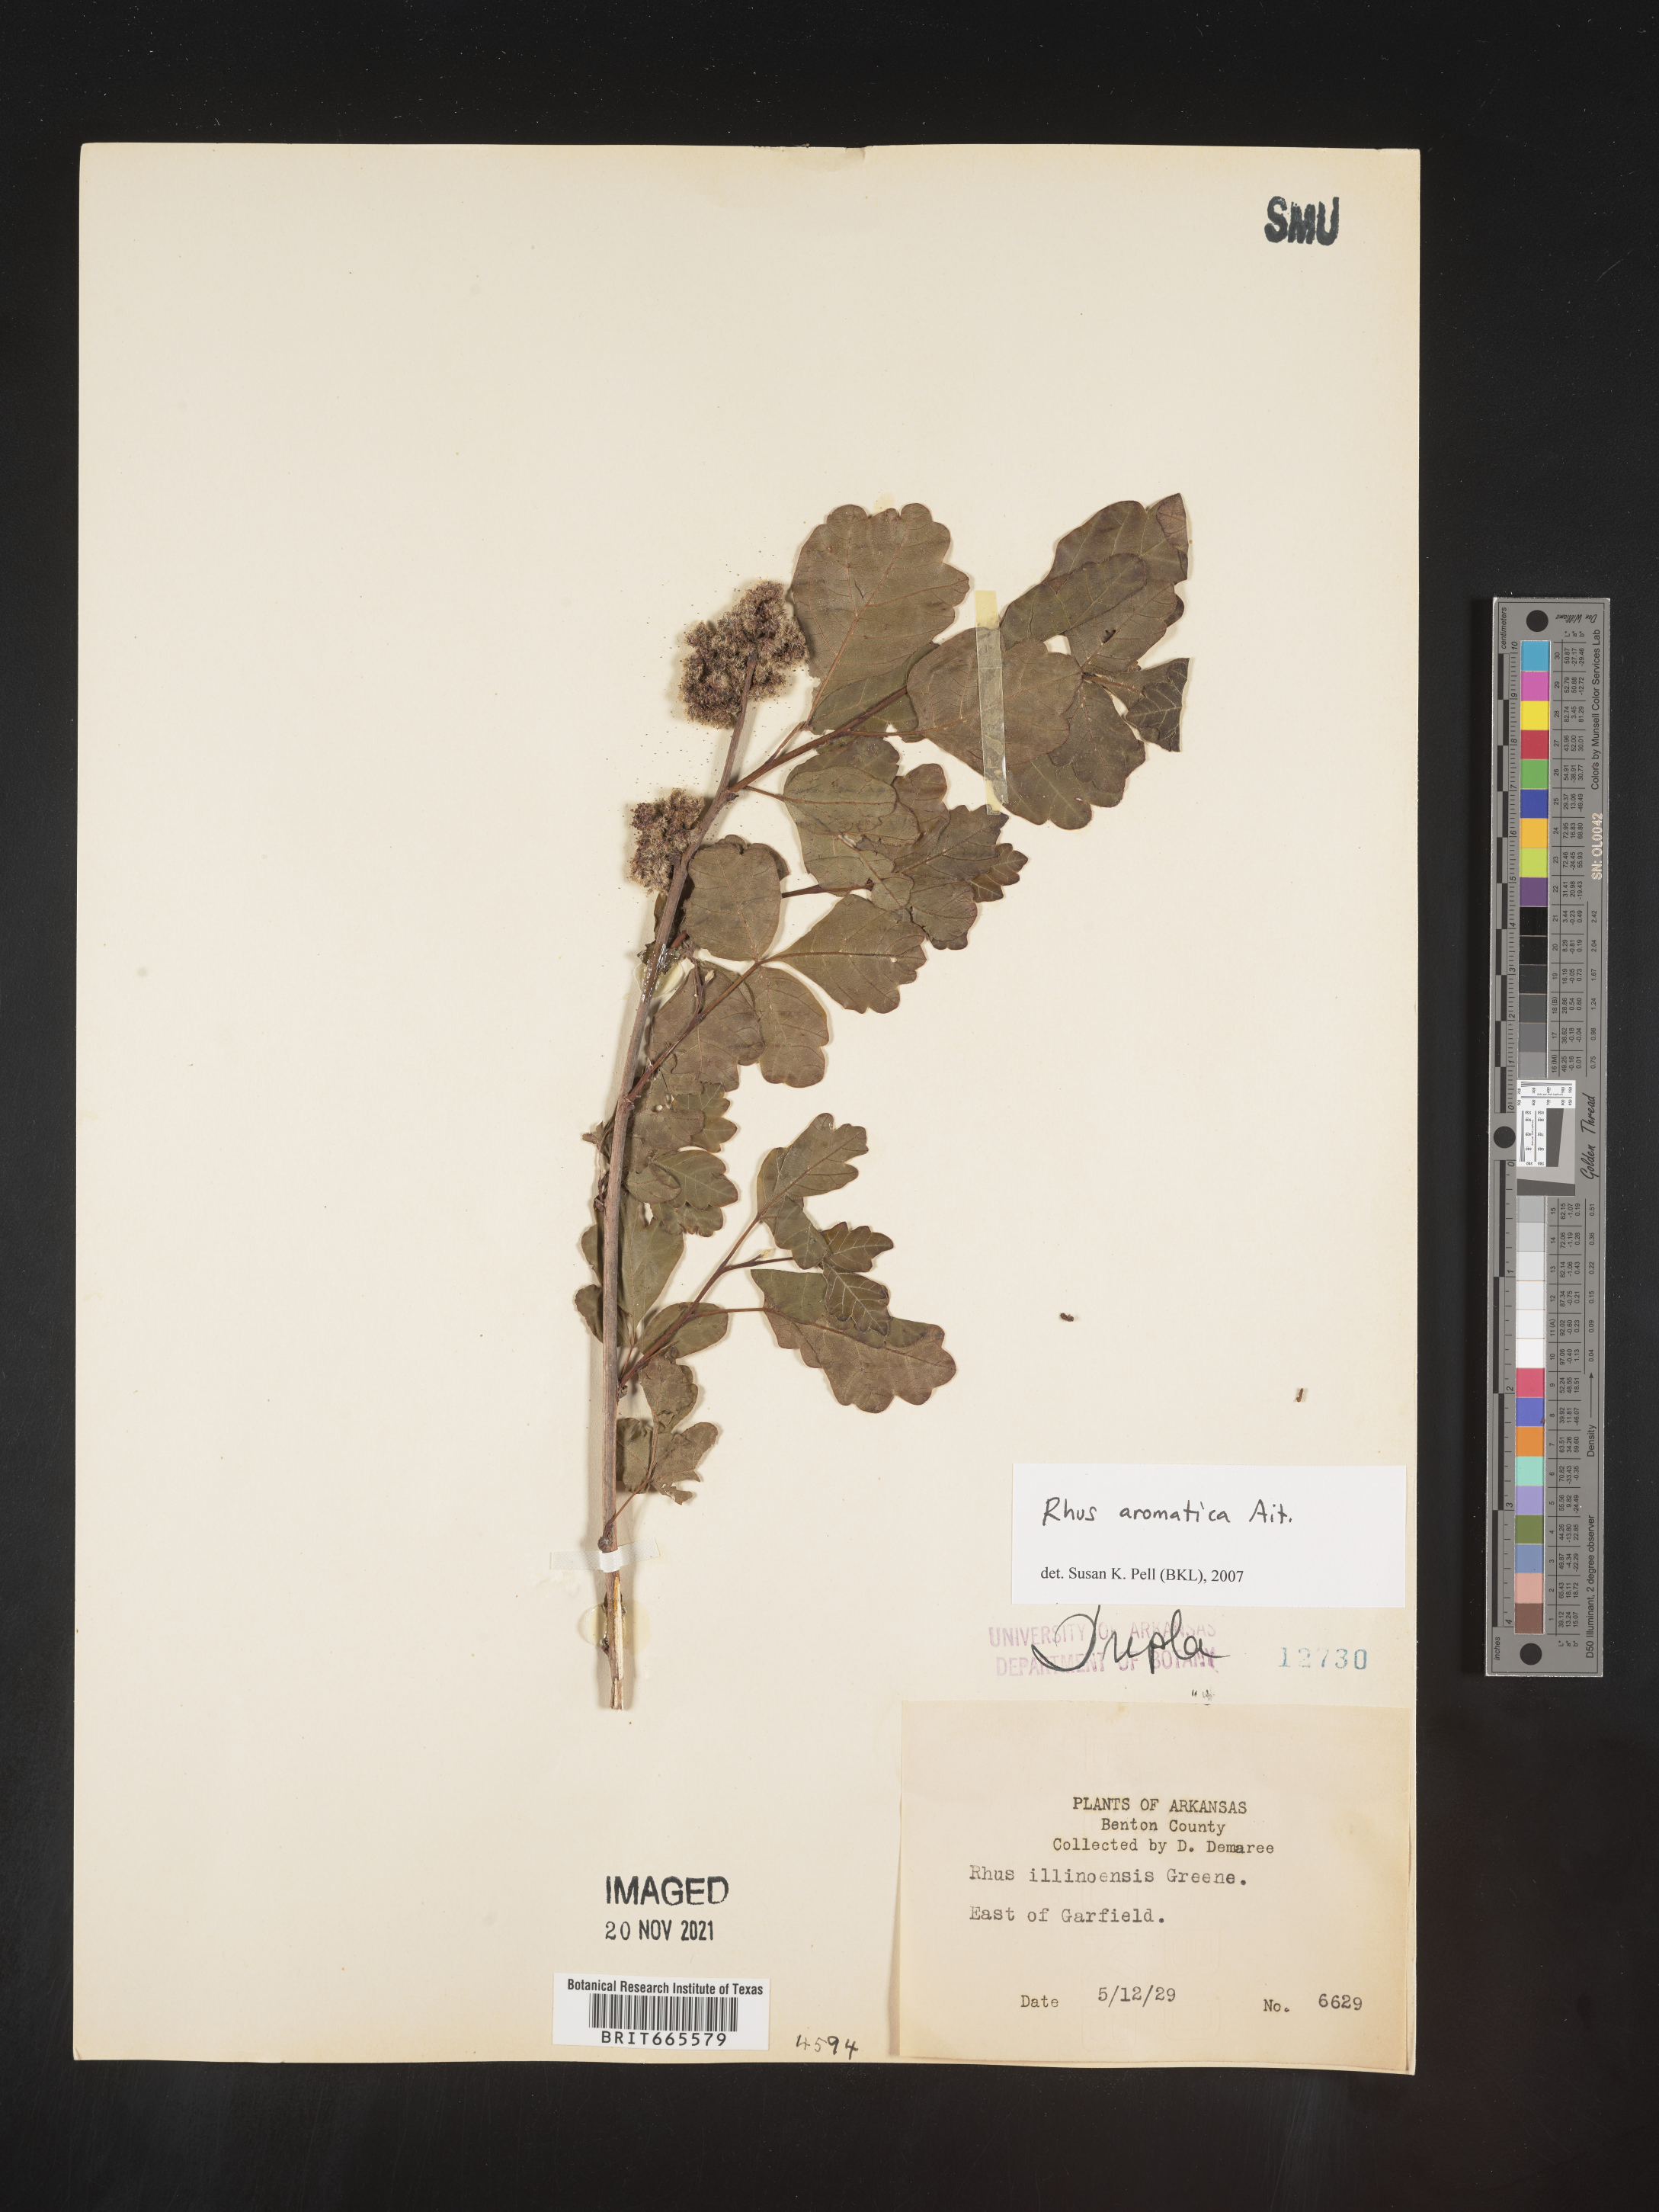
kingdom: Plantae
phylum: Tracheophyta
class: Magnoliopsida
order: Sapindales
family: Anacardiaceae
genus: Rhus
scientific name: Rhus aromatica
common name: Aromatic sumac
